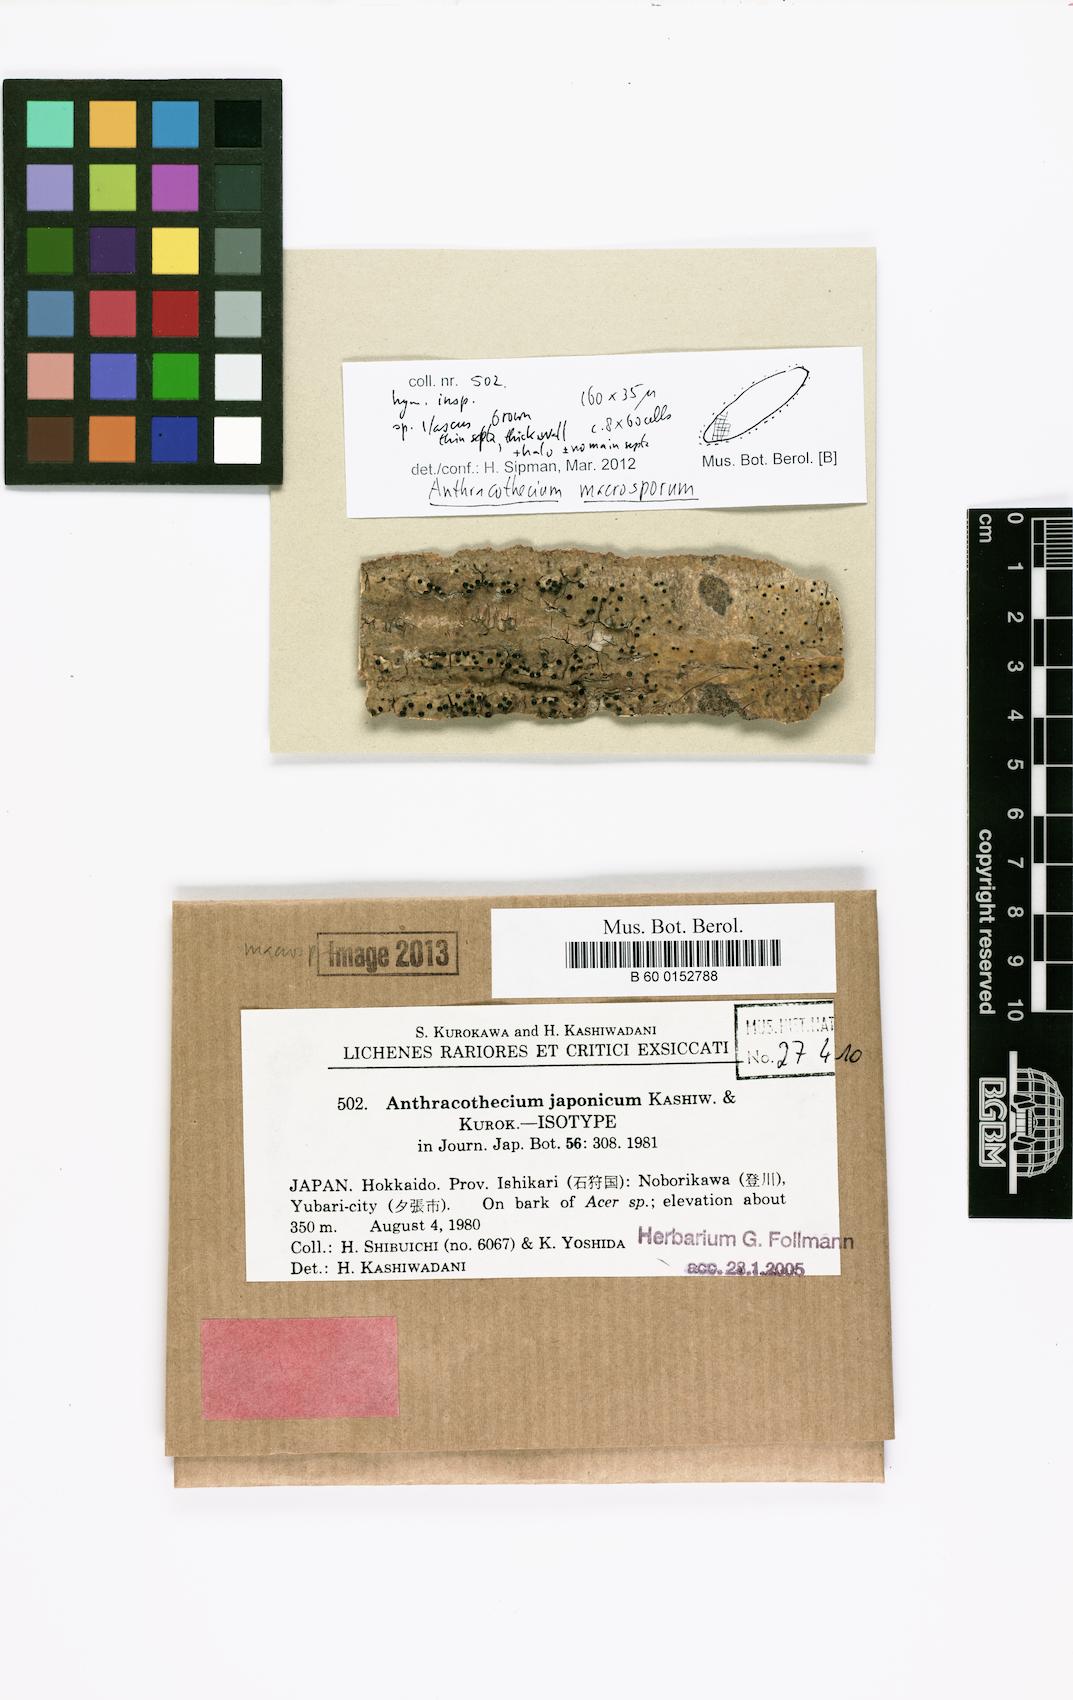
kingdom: Fungi
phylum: Ascomycota
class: Eurotiomycetes
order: Pyrenulales
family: Pyrenulaceae
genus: Pyrenula
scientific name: Pyrenula neojaponica
